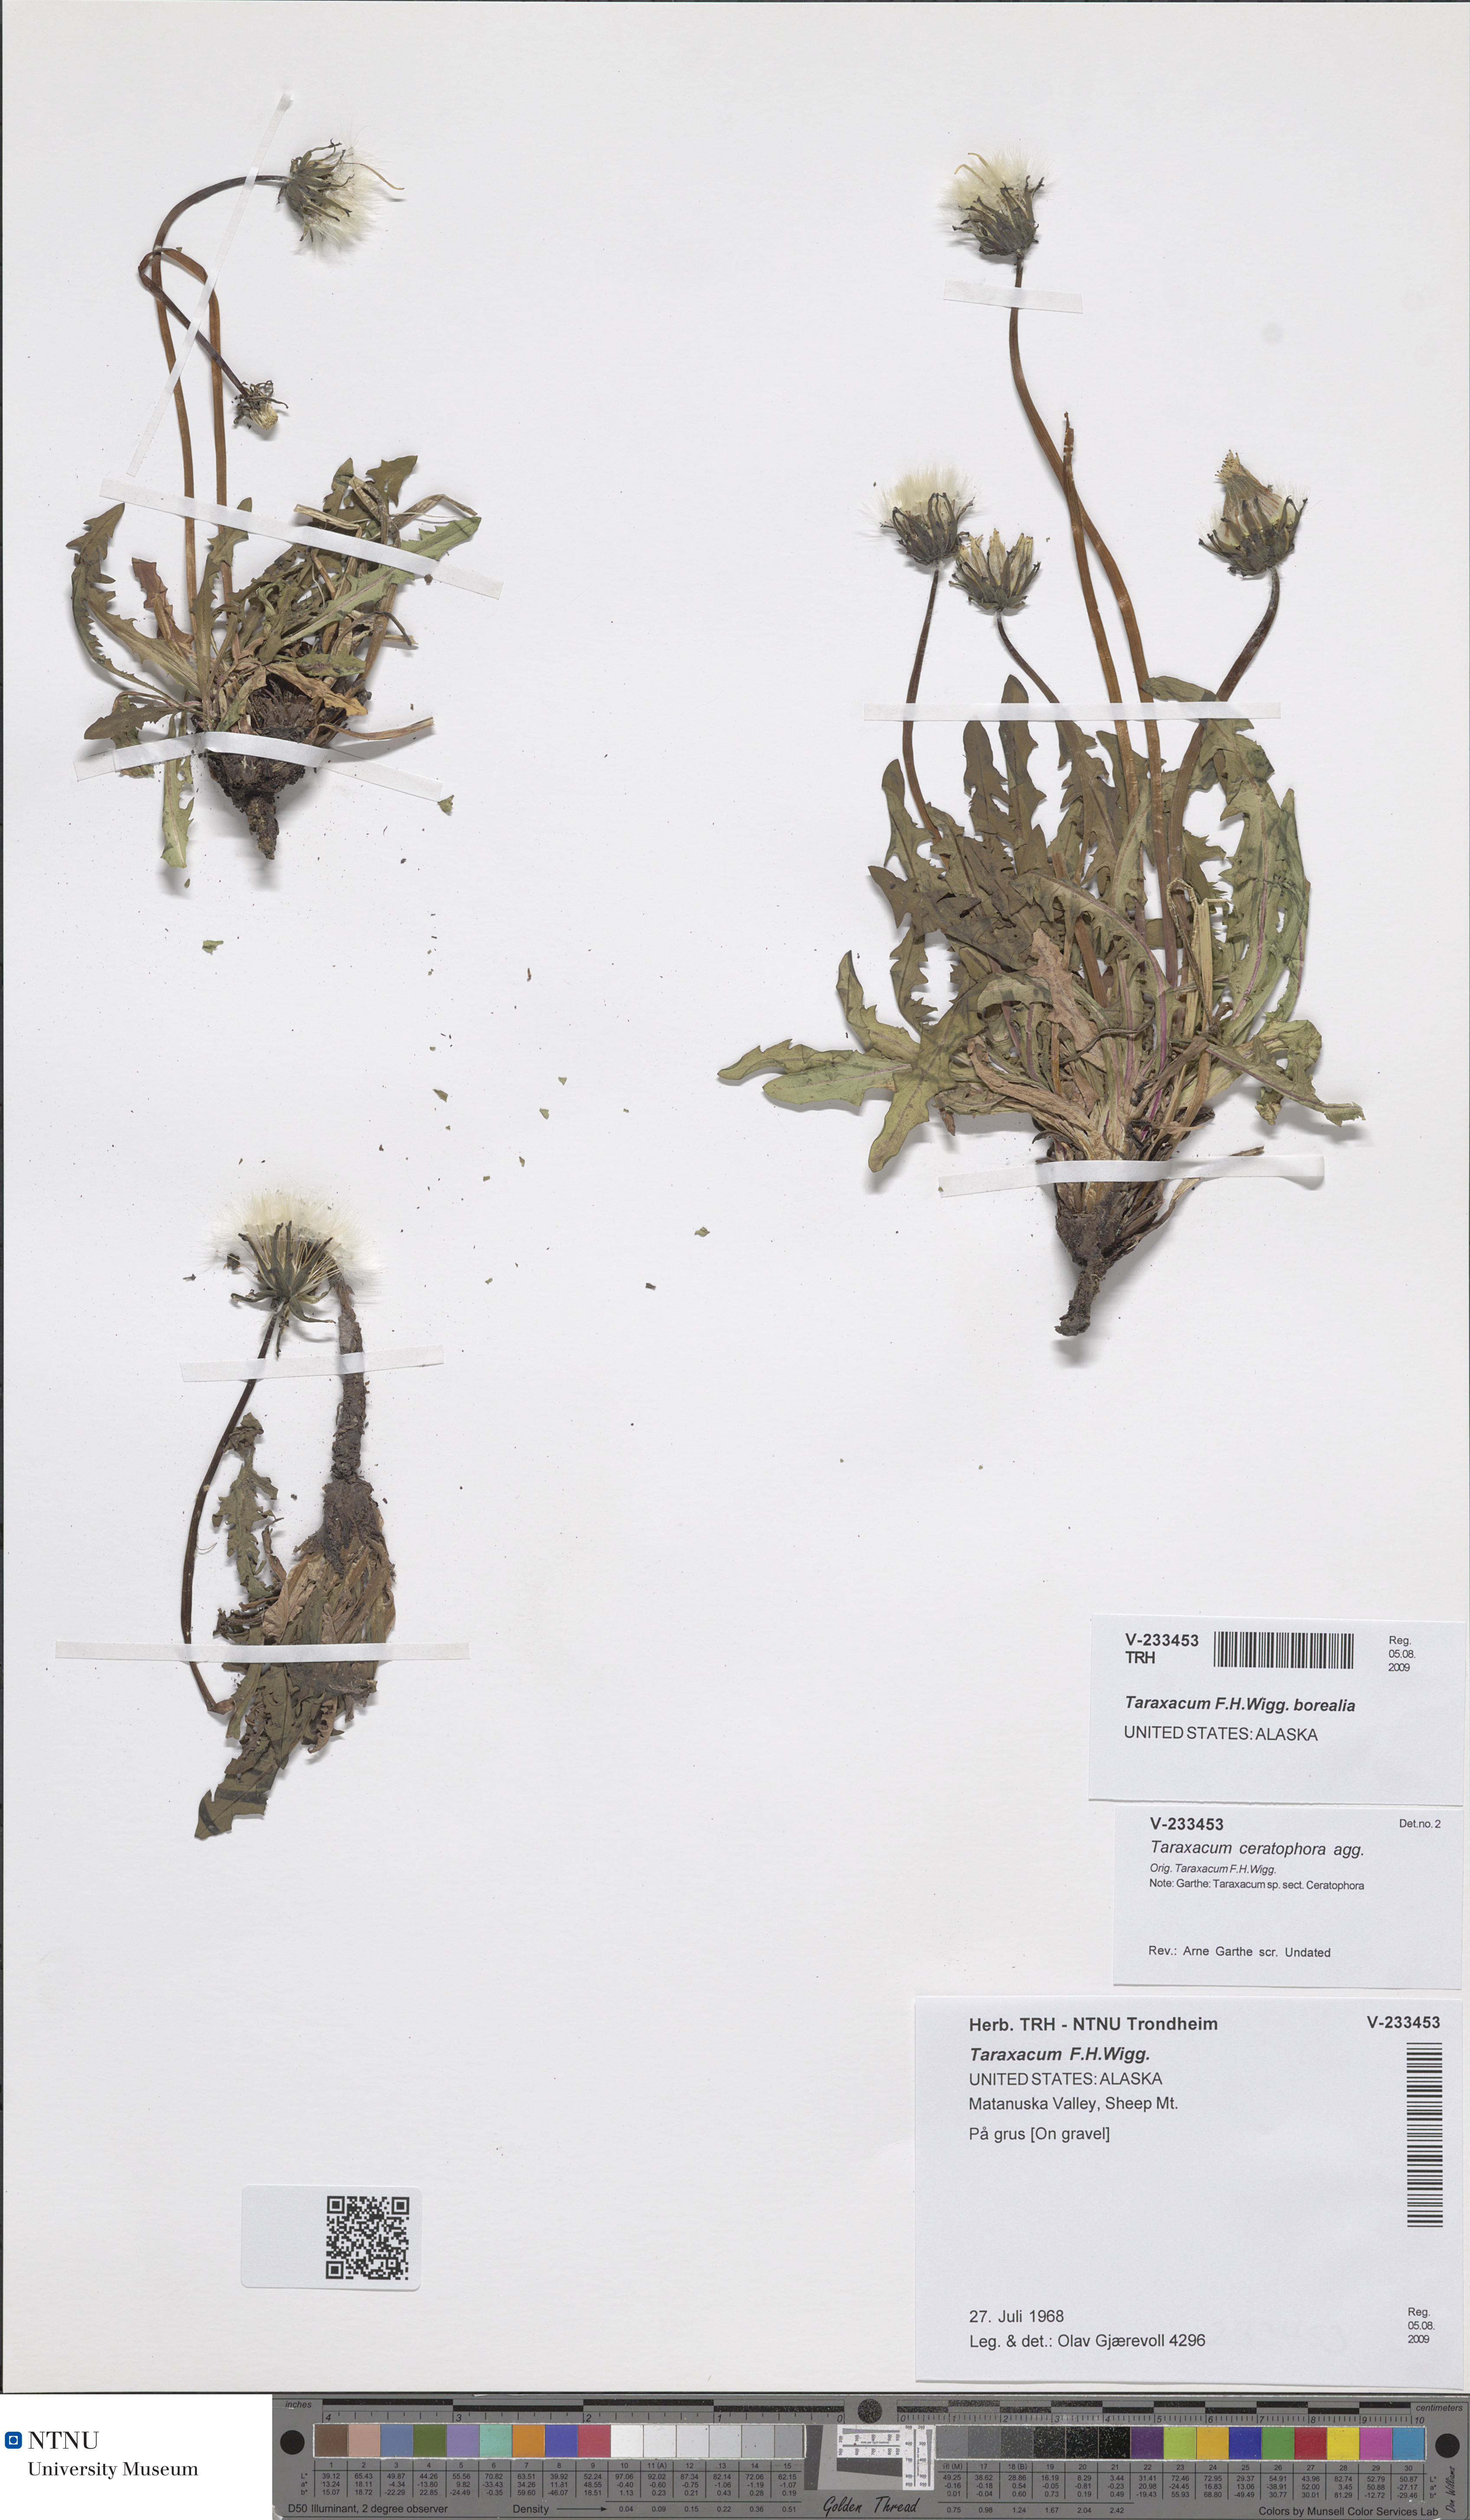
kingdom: Plantae
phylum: Tracheophyta
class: Magnoliopsida
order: Asterales
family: Asteraceae
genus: Taraxacum
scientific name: Taraxacum
